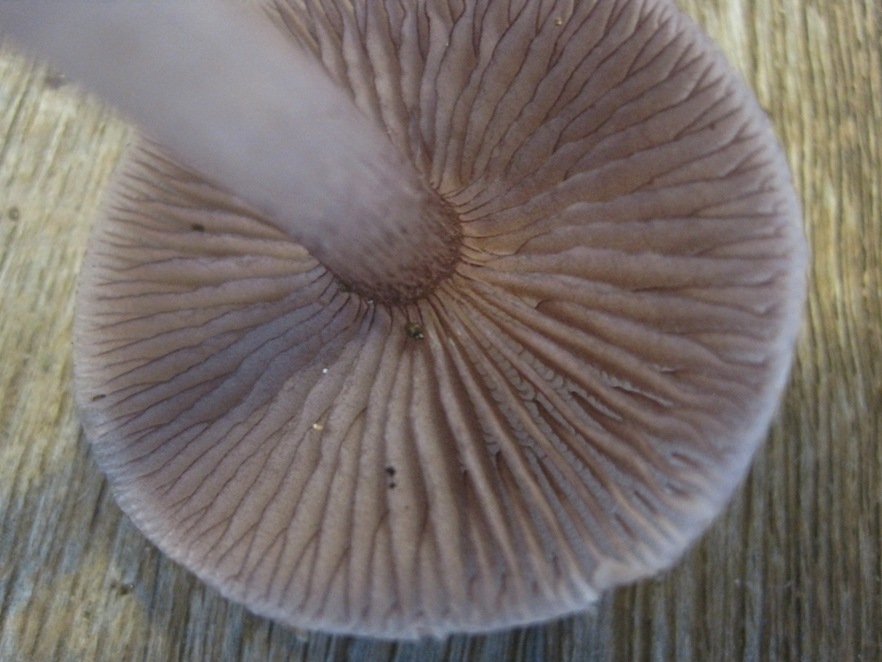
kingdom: Fungi
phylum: Basidiomycota
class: Agaricomycetes
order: Agaricales
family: Mycenaceae
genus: Mycena
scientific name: Mycena pelianthina
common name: mørkbladet huesvamp
